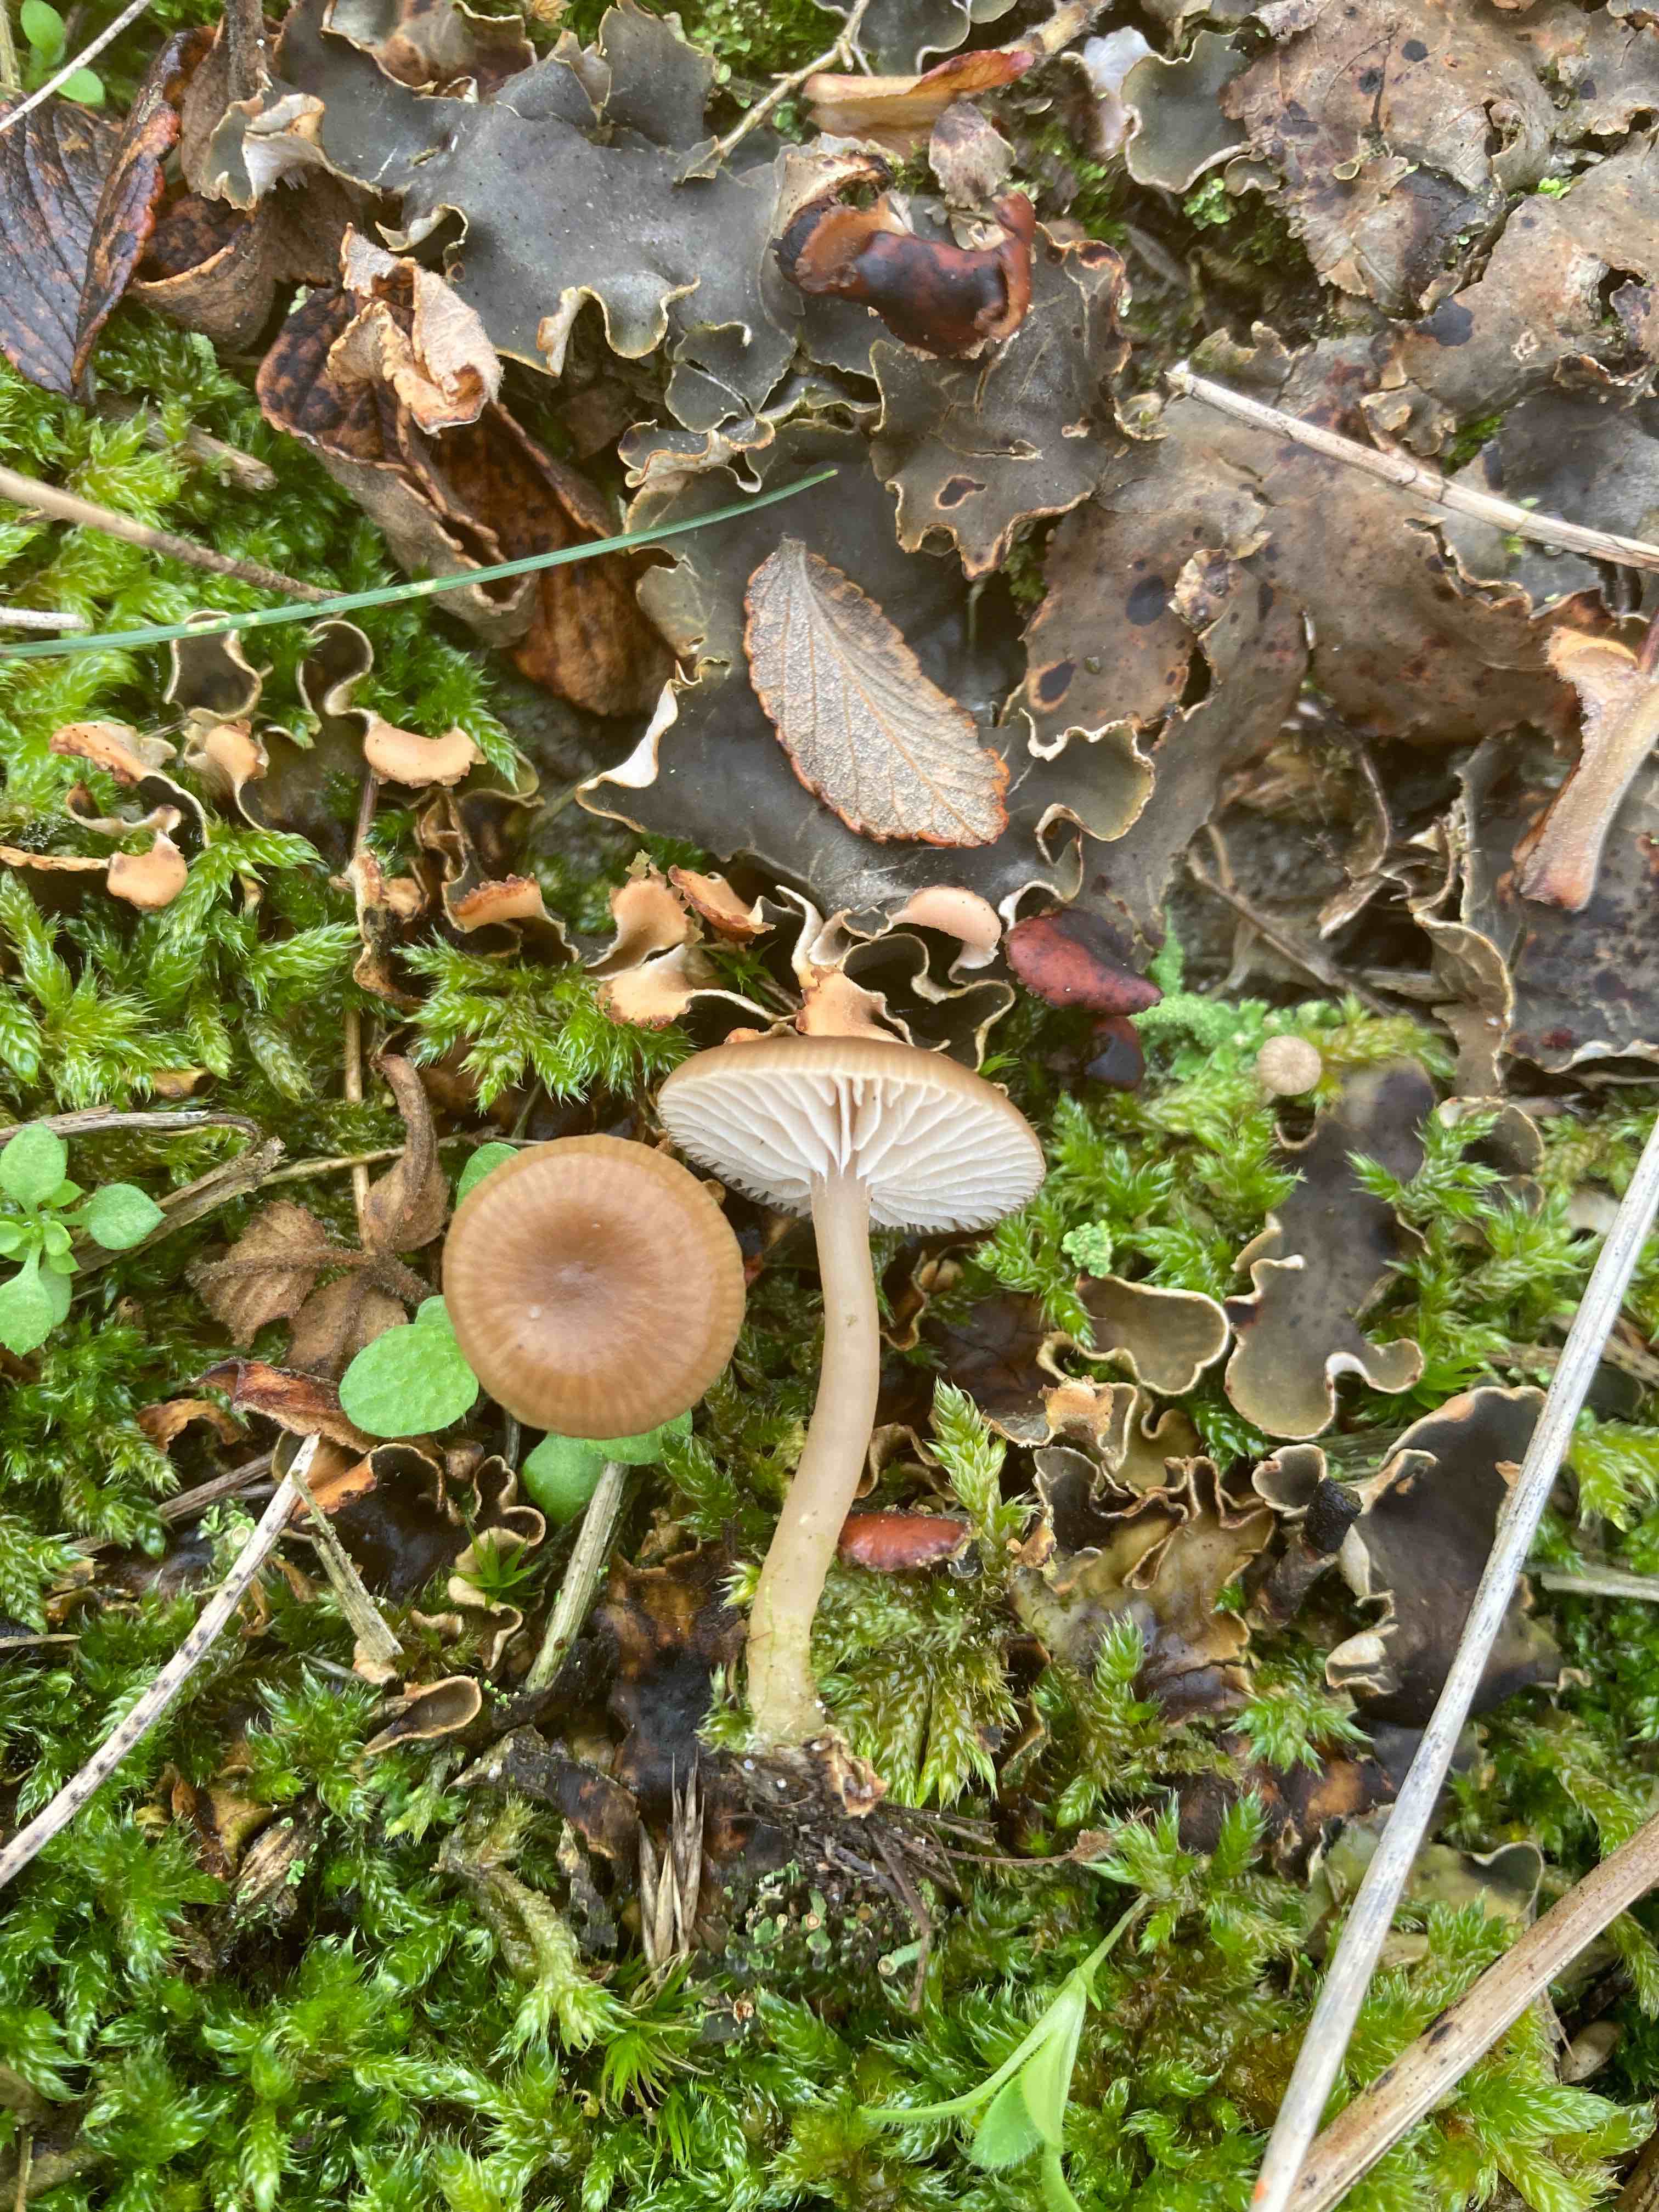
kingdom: Fungi
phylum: Basidiomycota
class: Agaricomycetes
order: Agaricales
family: Tricholomataceae
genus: Gamundia
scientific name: Gamundia xerophila
